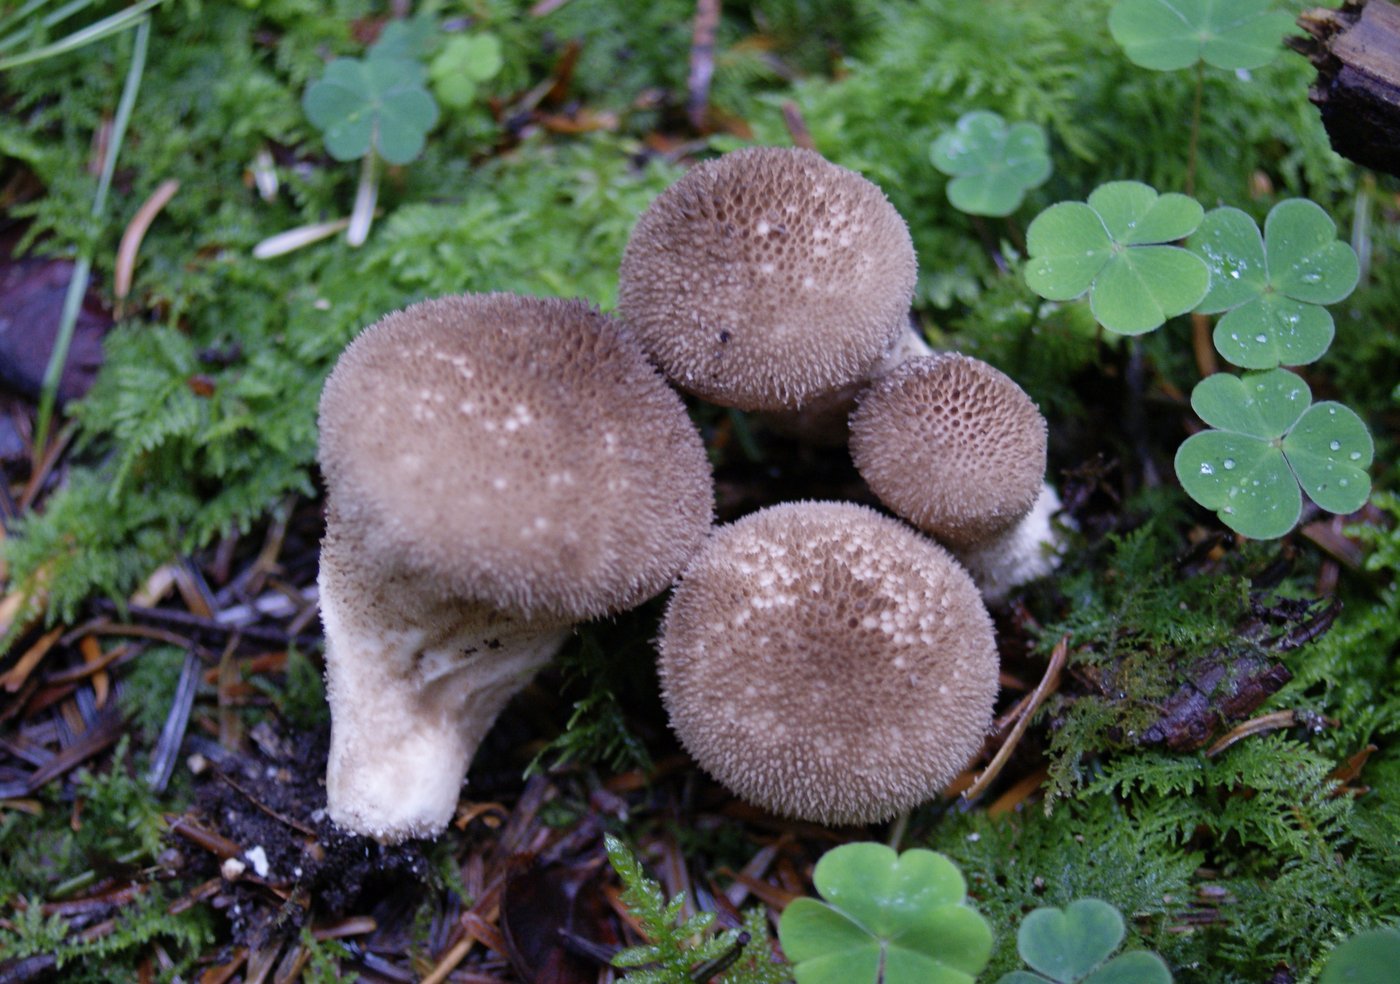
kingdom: Fungi
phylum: Basidiomycota
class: Agaricomycetes
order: Agaricales
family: Lycoperdaceae
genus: Lycoperdon
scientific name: Lycoperdon nigrescens
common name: sortagtig støvbold
